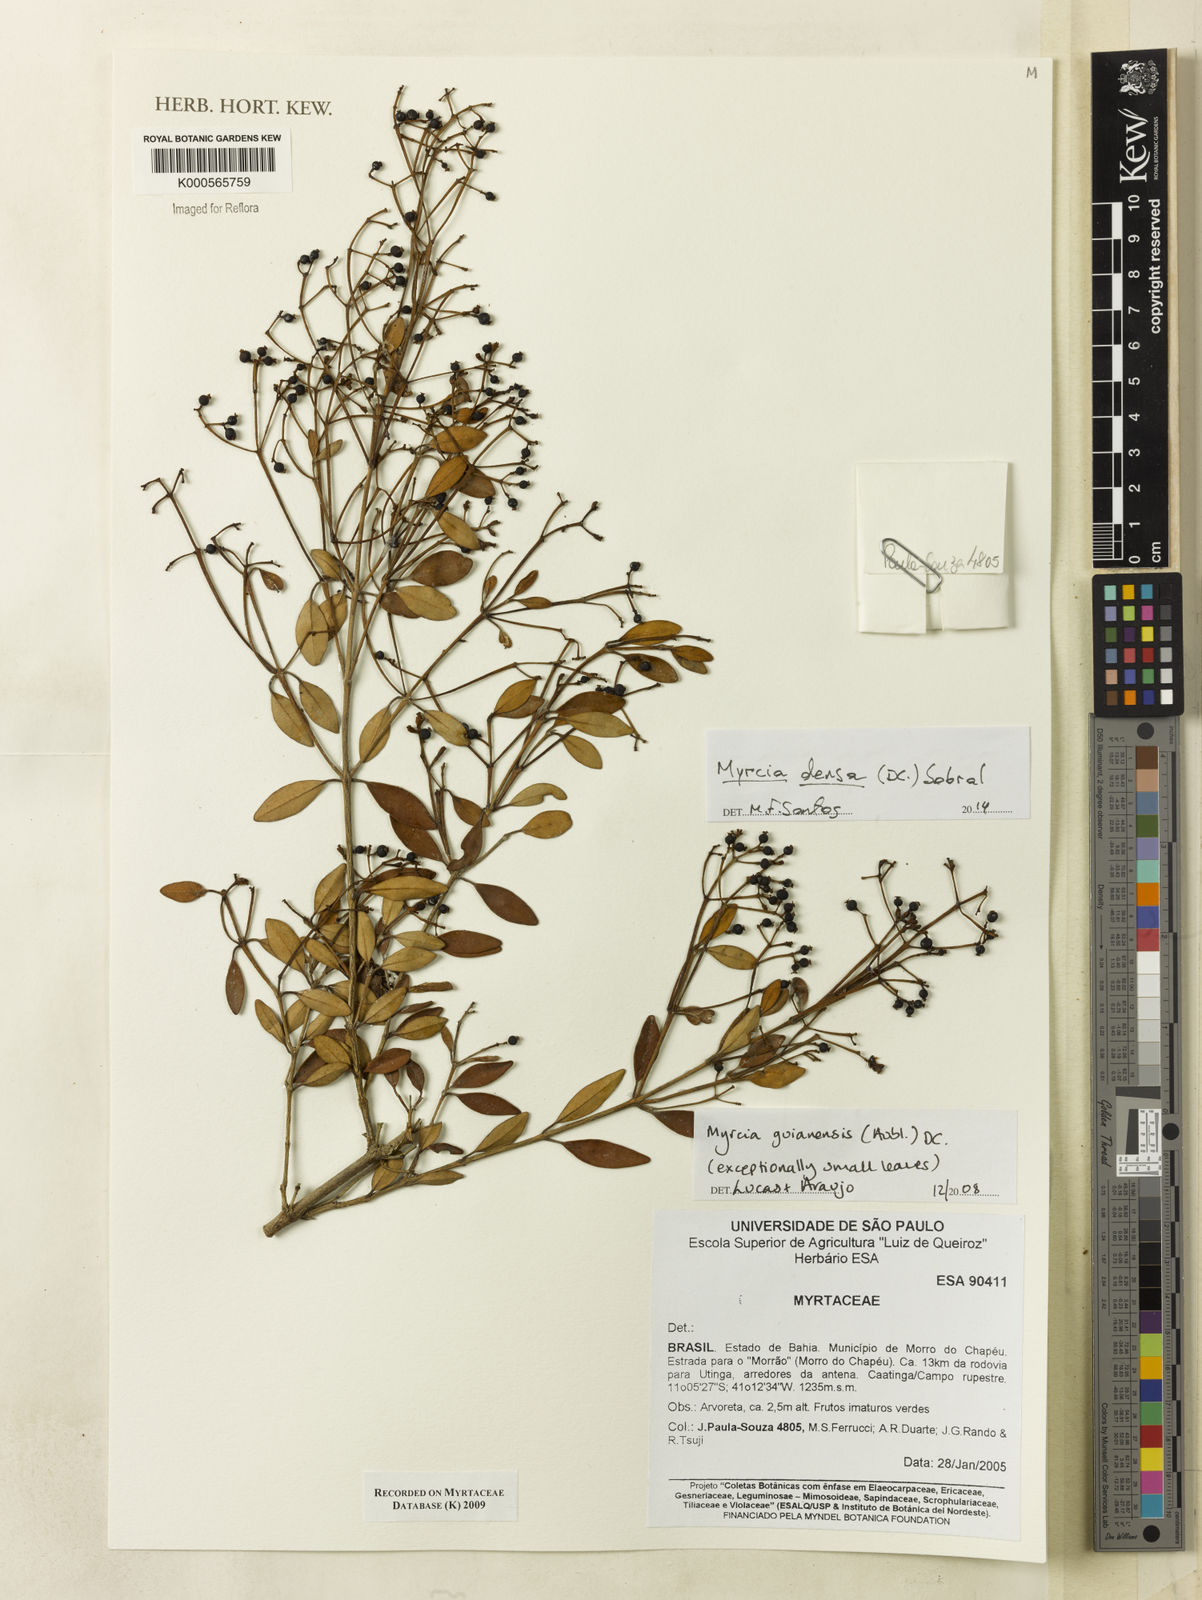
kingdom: Plantae
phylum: Tracheophyta
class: Magnoliopsida
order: Myrtales
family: Myrtaceae
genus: Myrcia
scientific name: Myrcia guianensis
